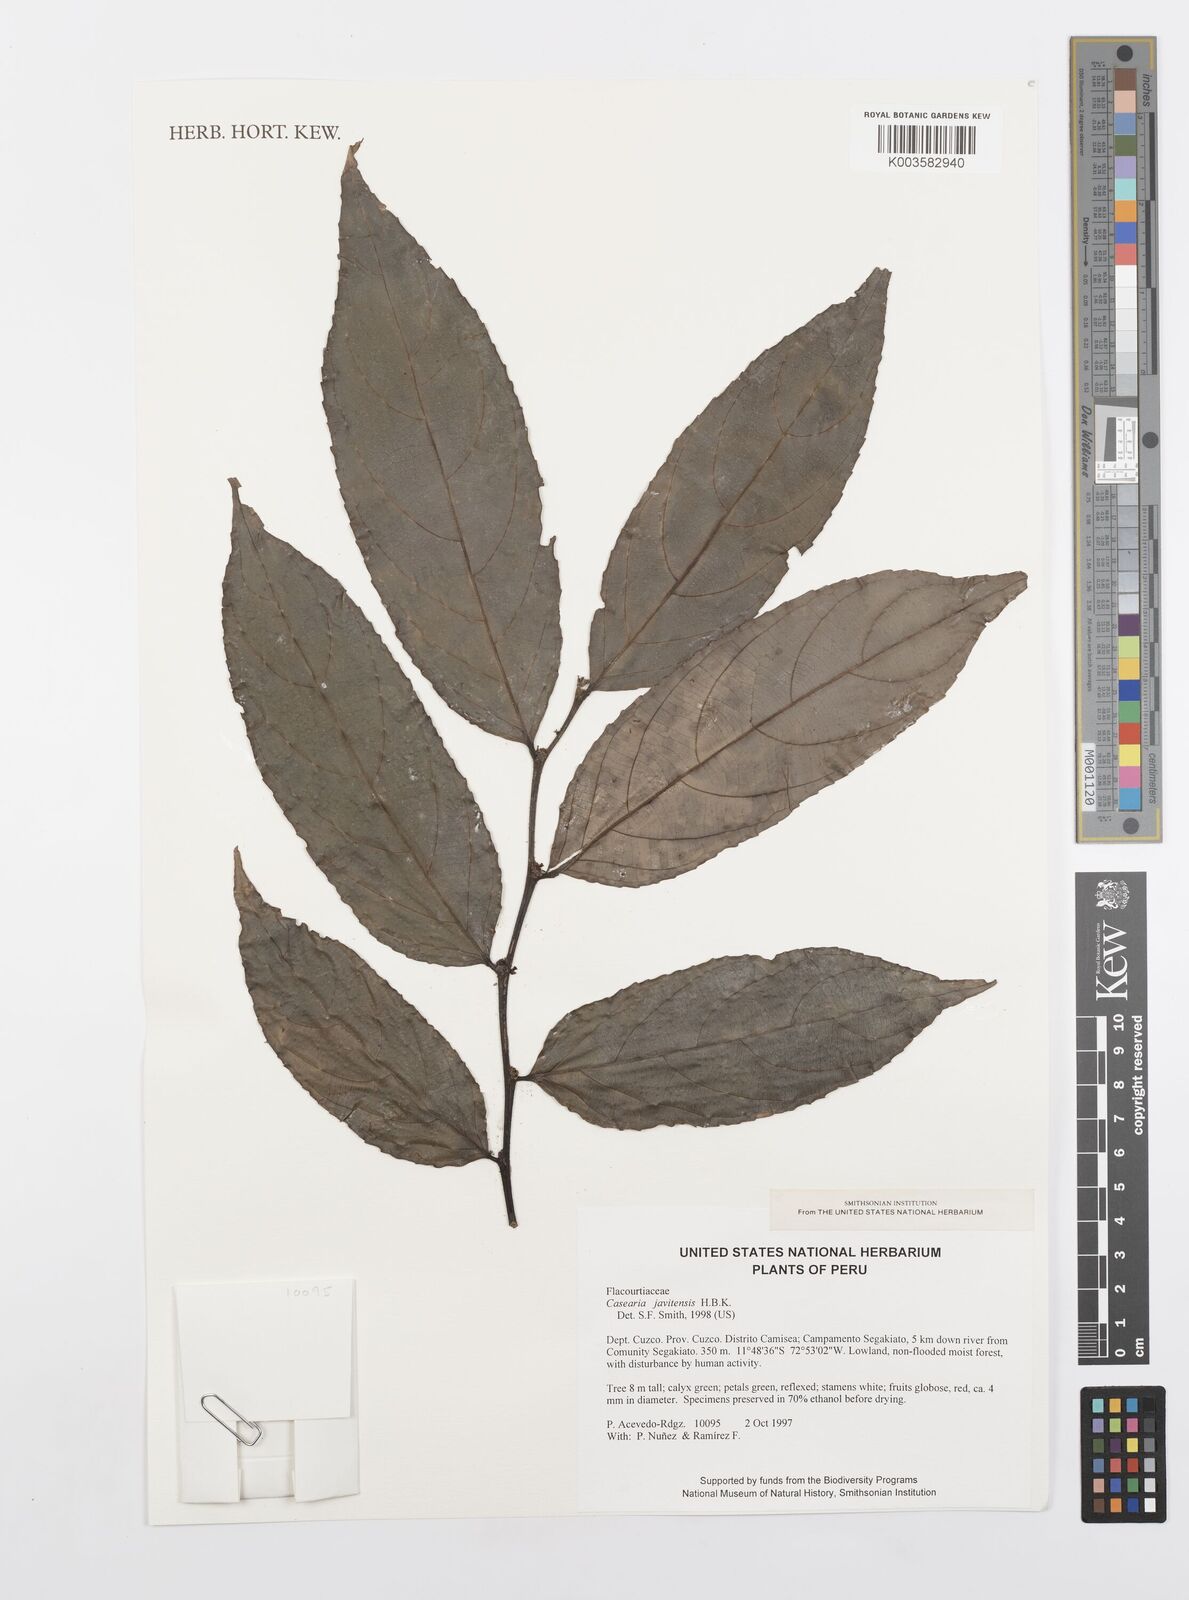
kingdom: Plantae
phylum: Tracheophyta
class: Magnoliopsida
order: Malpighiales
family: Salicaceae
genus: Piparea
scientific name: Piparea multiflora
